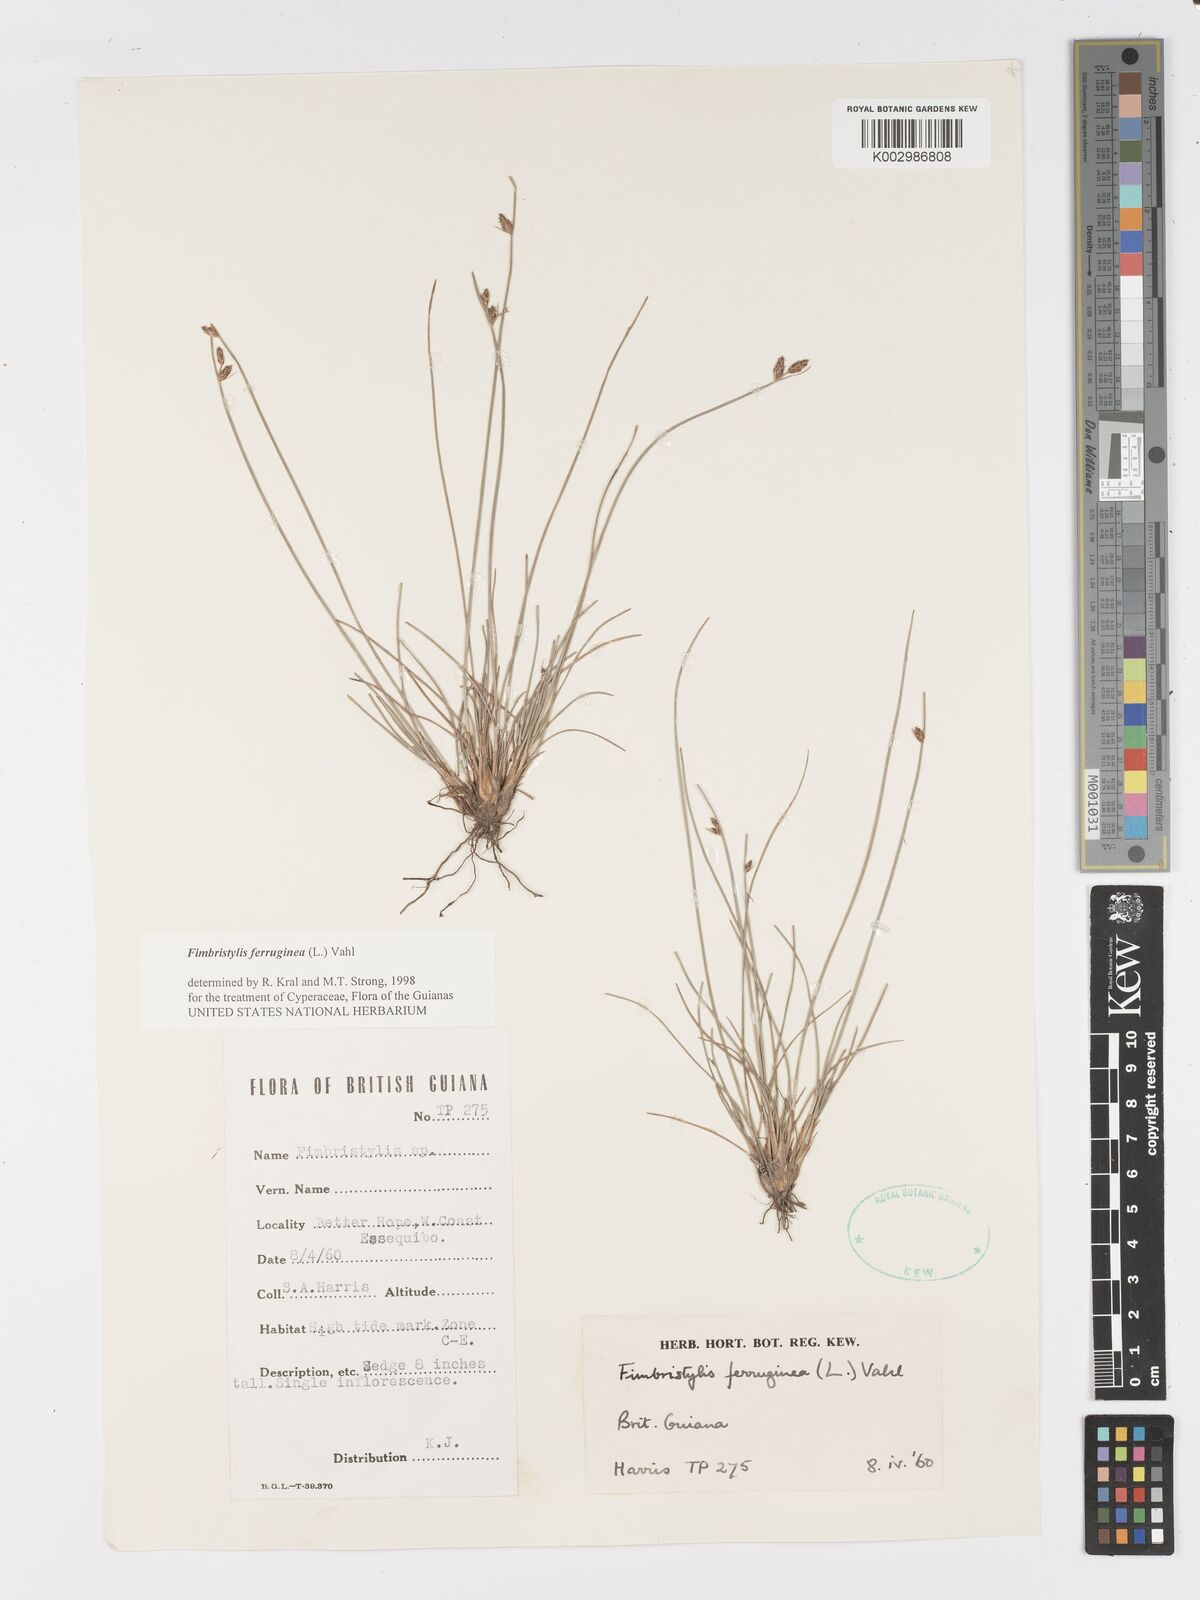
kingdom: Plantae
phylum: Tracheophyta
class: Liliopsida
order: Poales
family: Cyperaceae
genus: Fimbristylis
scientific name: Fimbristylis ferruginea
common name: West indian fimbry
